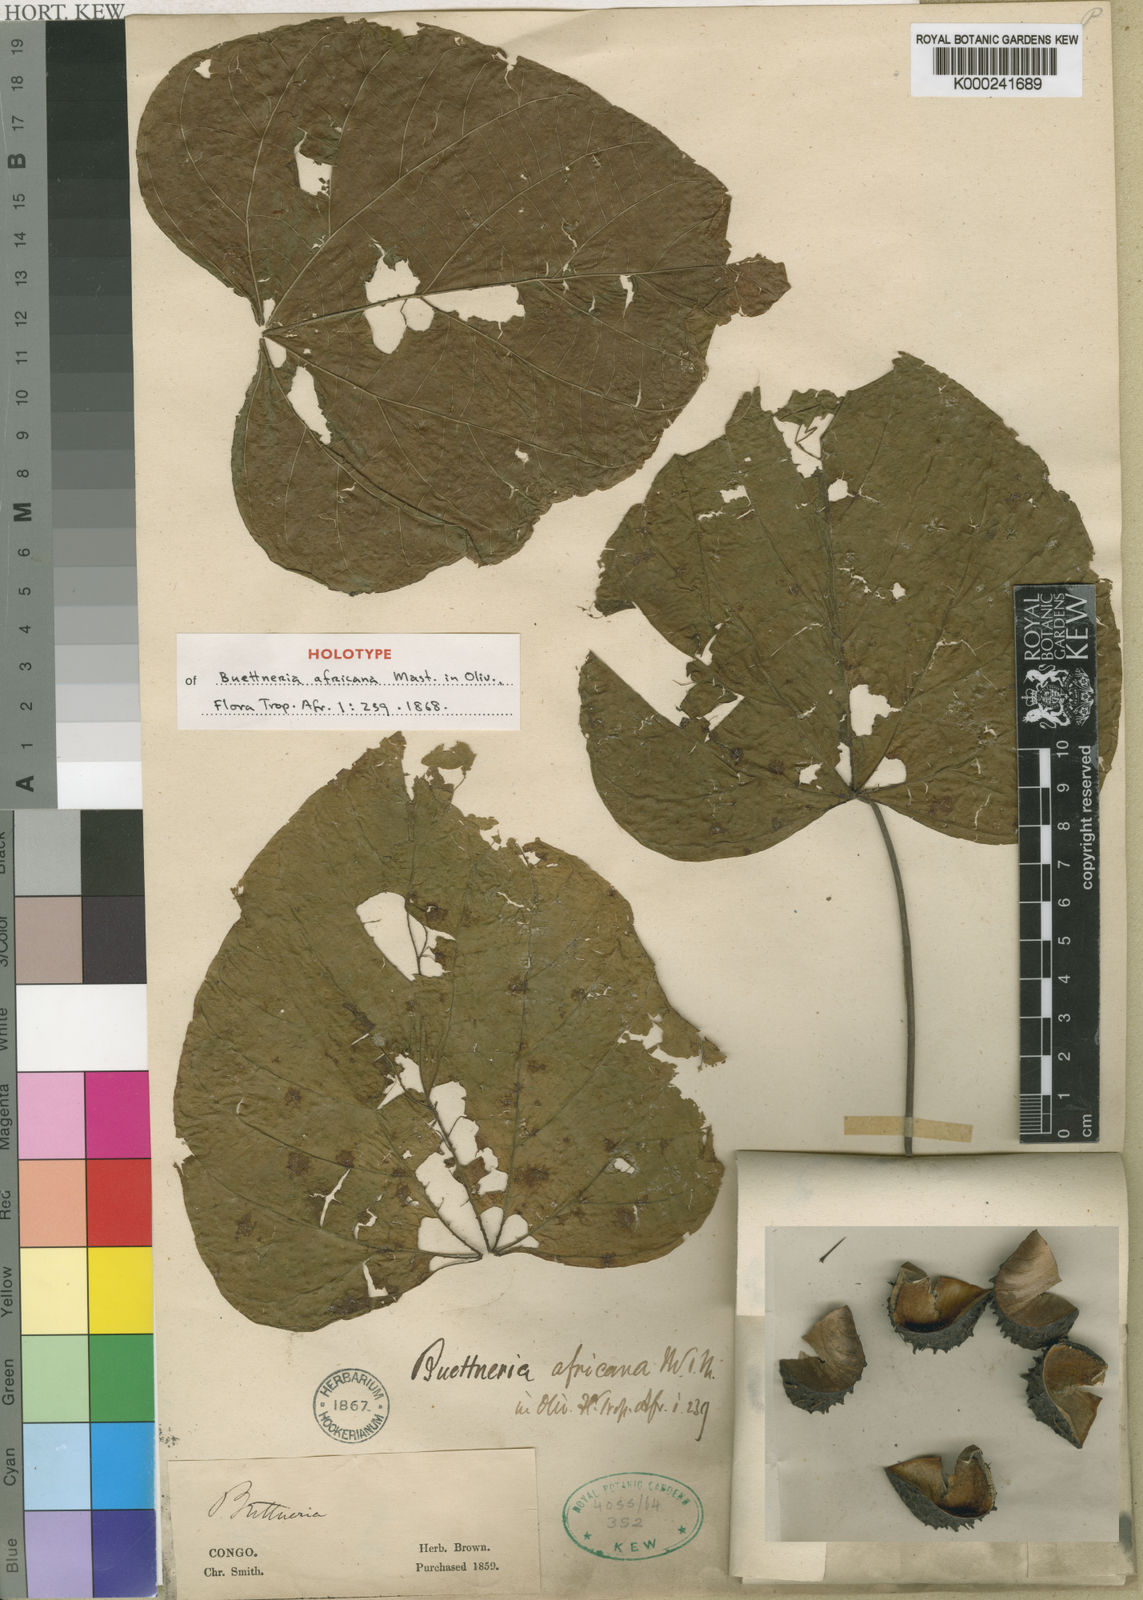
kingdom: Plantae
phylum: Tracheophyta
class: Magnoliopsida
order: Malvales
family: Malvaceae
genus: Byttneria
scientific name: Byttneria catalpifolia
